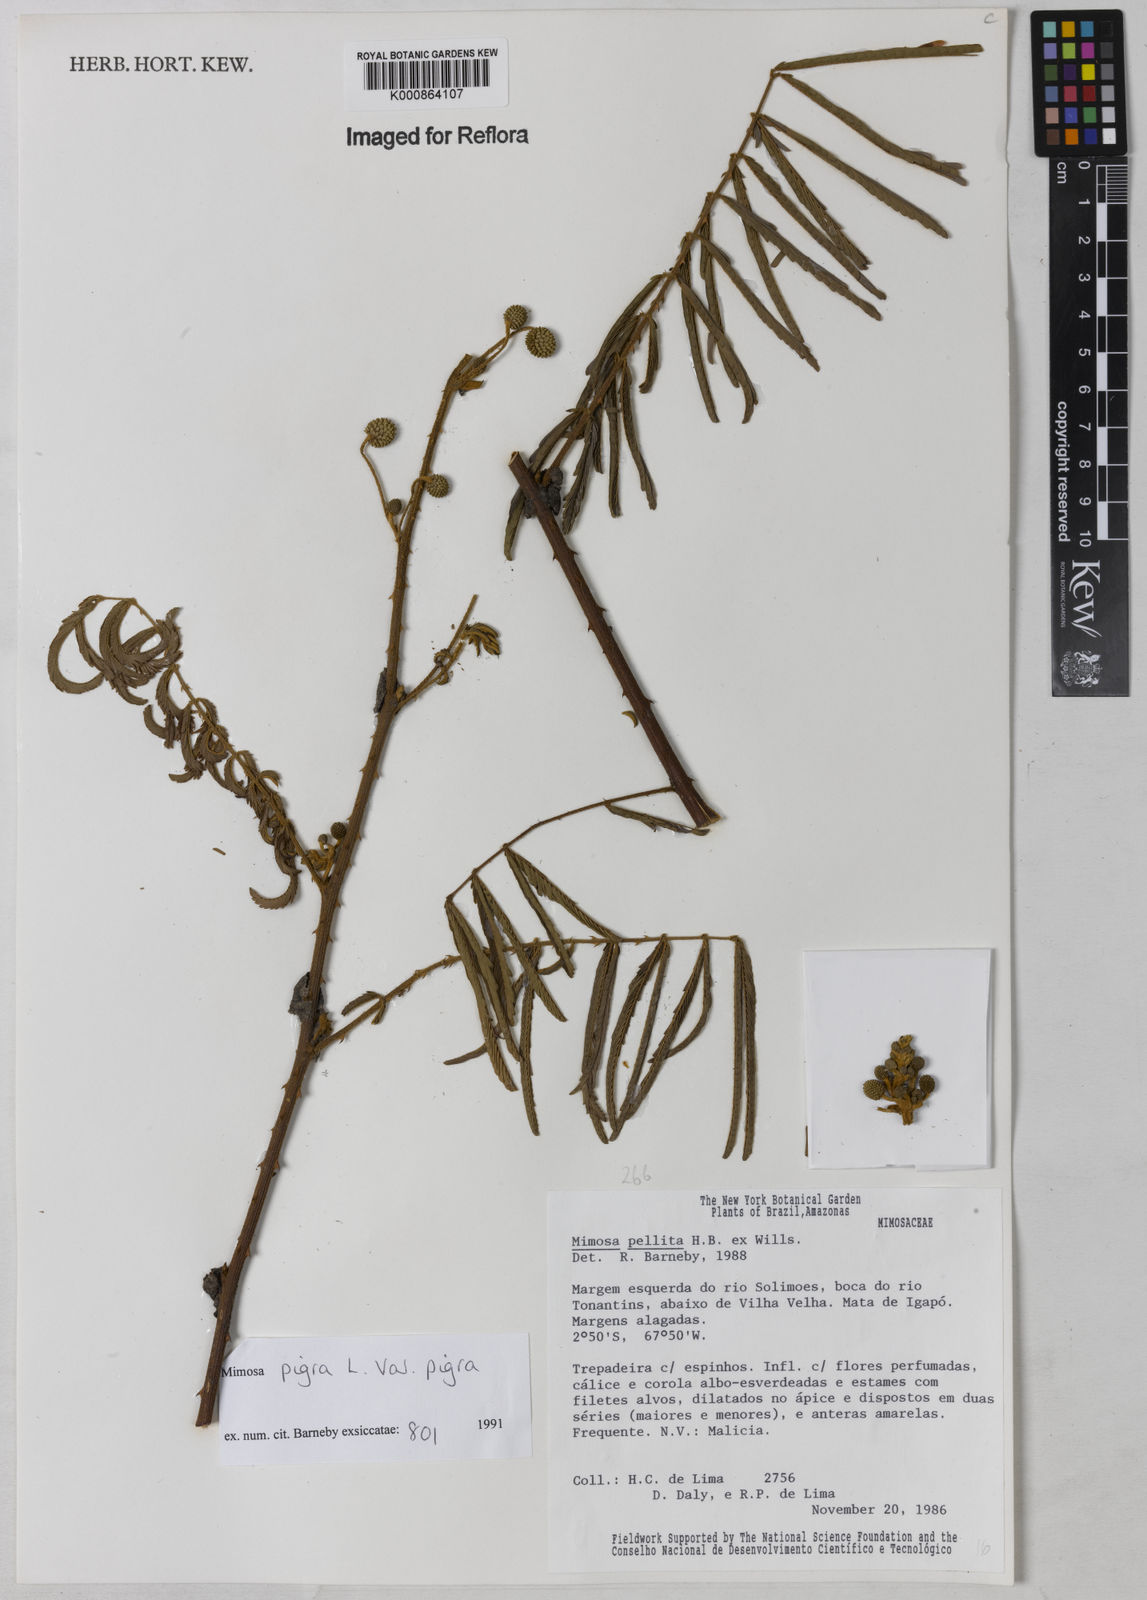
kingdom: Plantae
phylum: Tracheophyta
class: Magnoliopsida
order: Fabales
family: Fabaceae
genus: Mimosa
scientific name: Mimosa pigra
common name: Black mimosa
